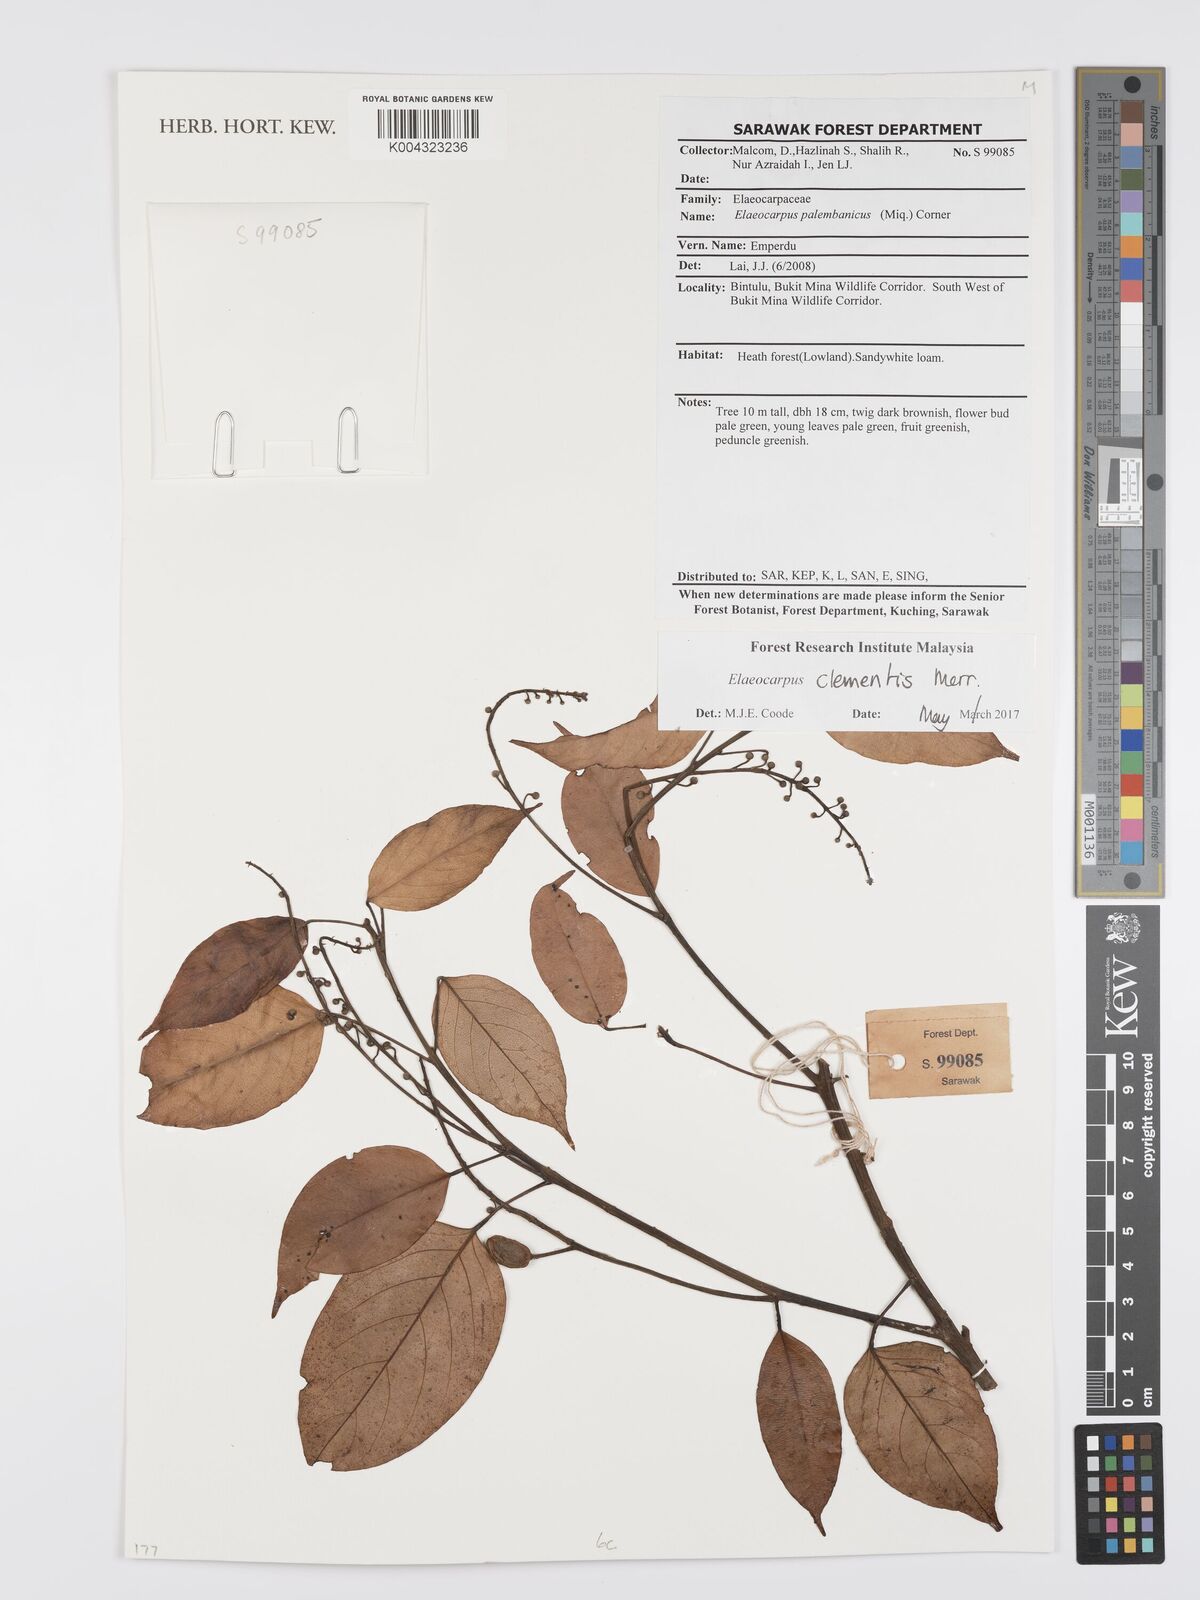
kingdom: Plantae
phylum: Tracheophyta
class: Magnoliopsida
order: Oxalidales
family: Elaeocarpaceae
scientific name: Elaeocarpaceae
